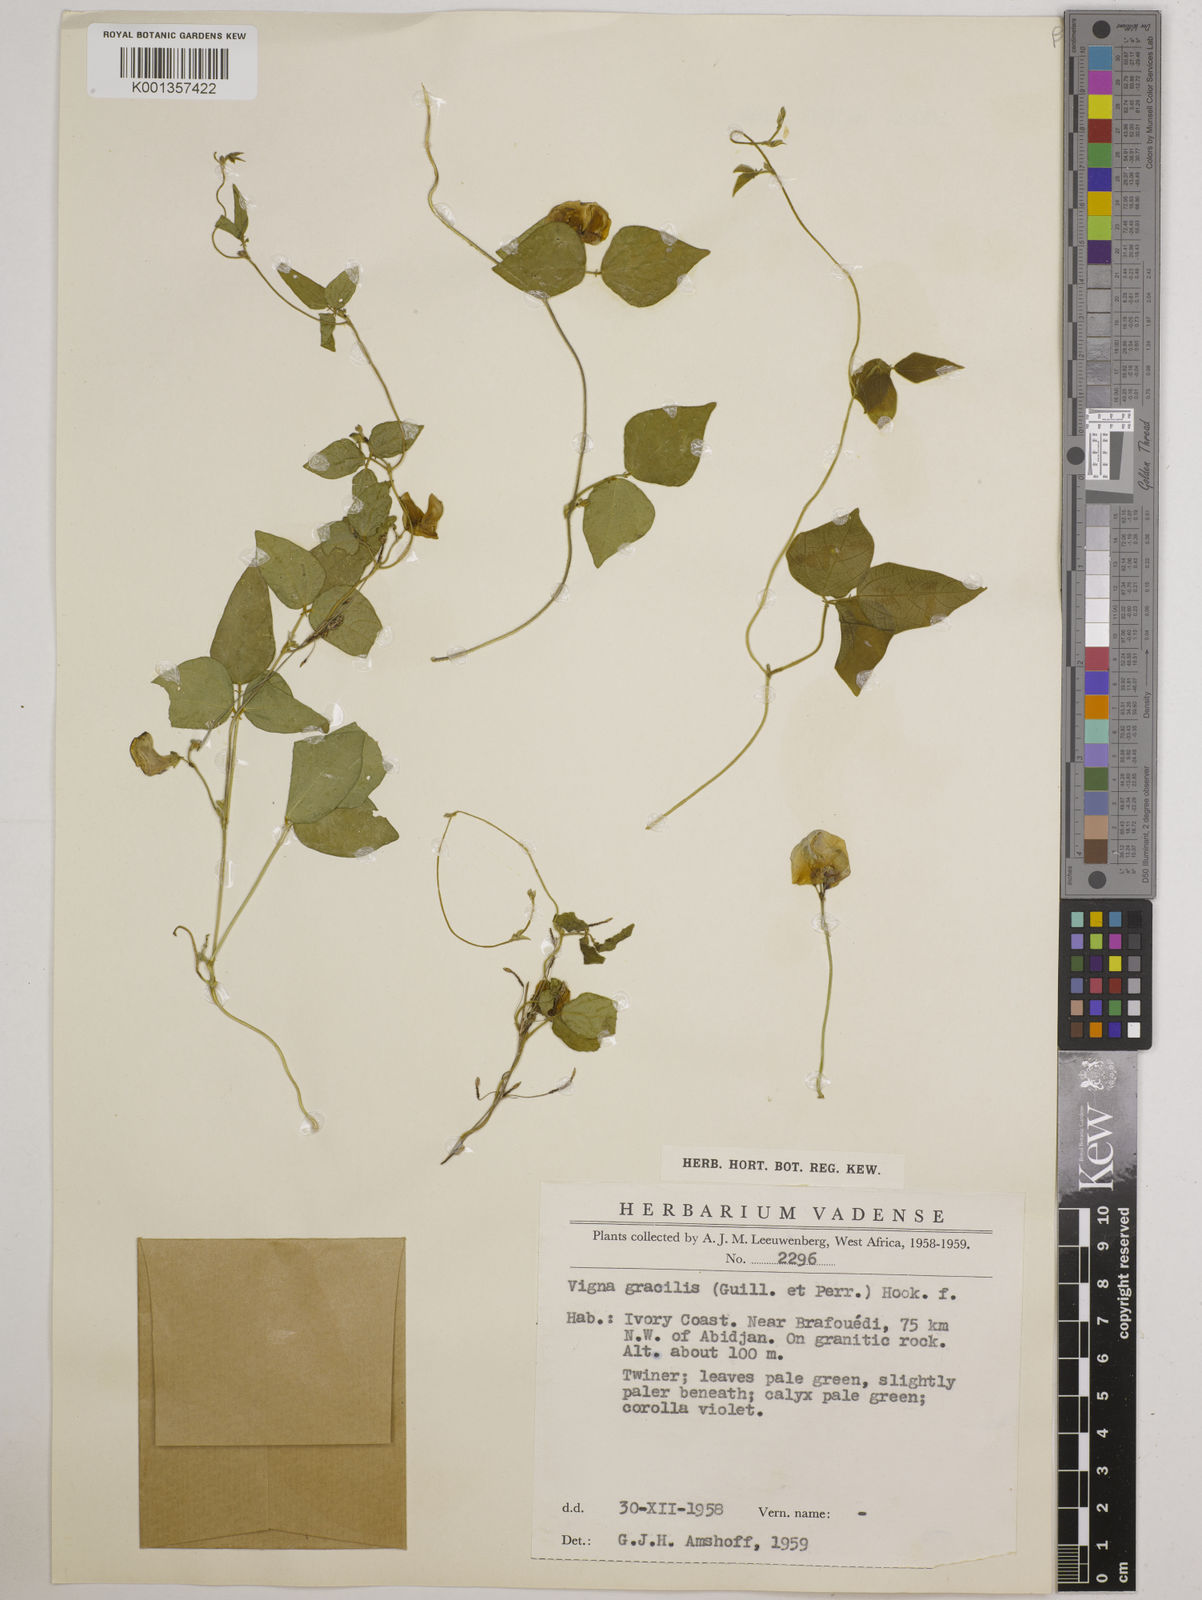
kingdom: Plantae
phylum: Tracheophyta
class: Magnoliopsida
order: Fabales
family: Fabaceae
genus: Vigna
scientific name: Vigna gracilis
